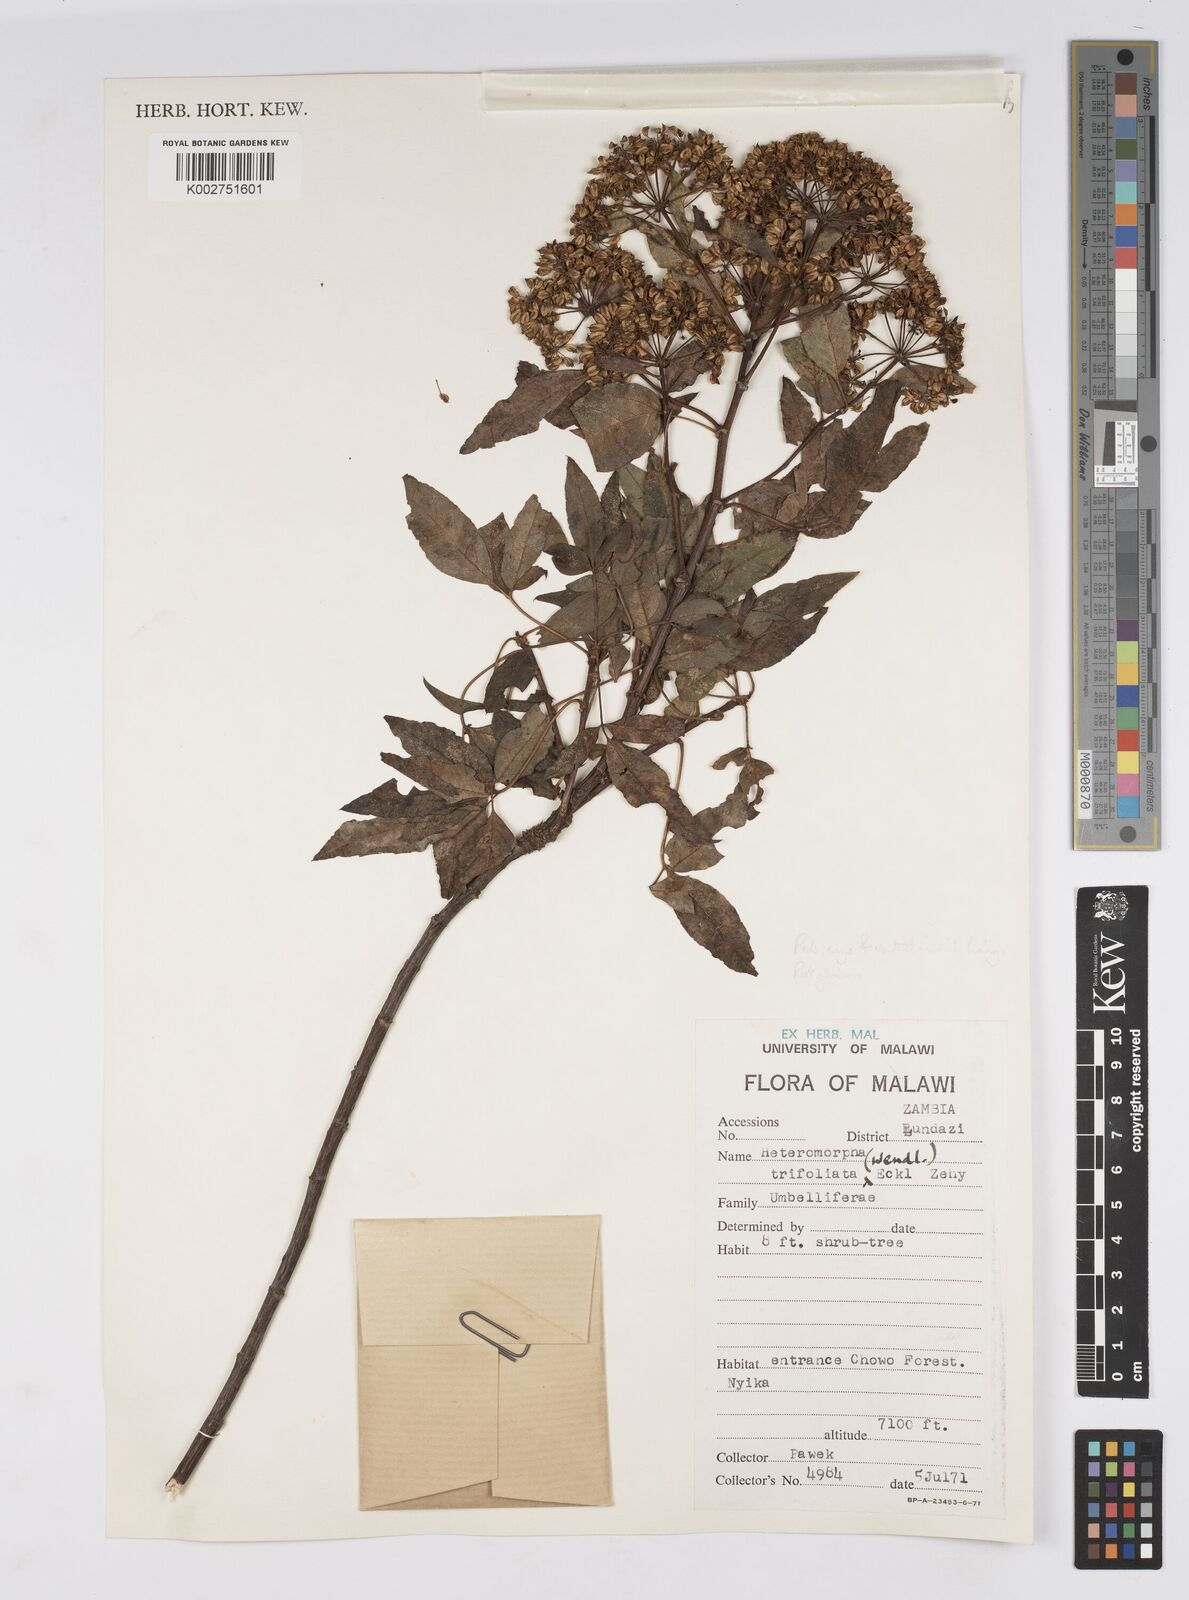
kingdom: Plantae
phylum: Tracheophyta
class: Magnoliopsida
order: Apiales
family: Apiaceae
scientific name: Apiaceae
